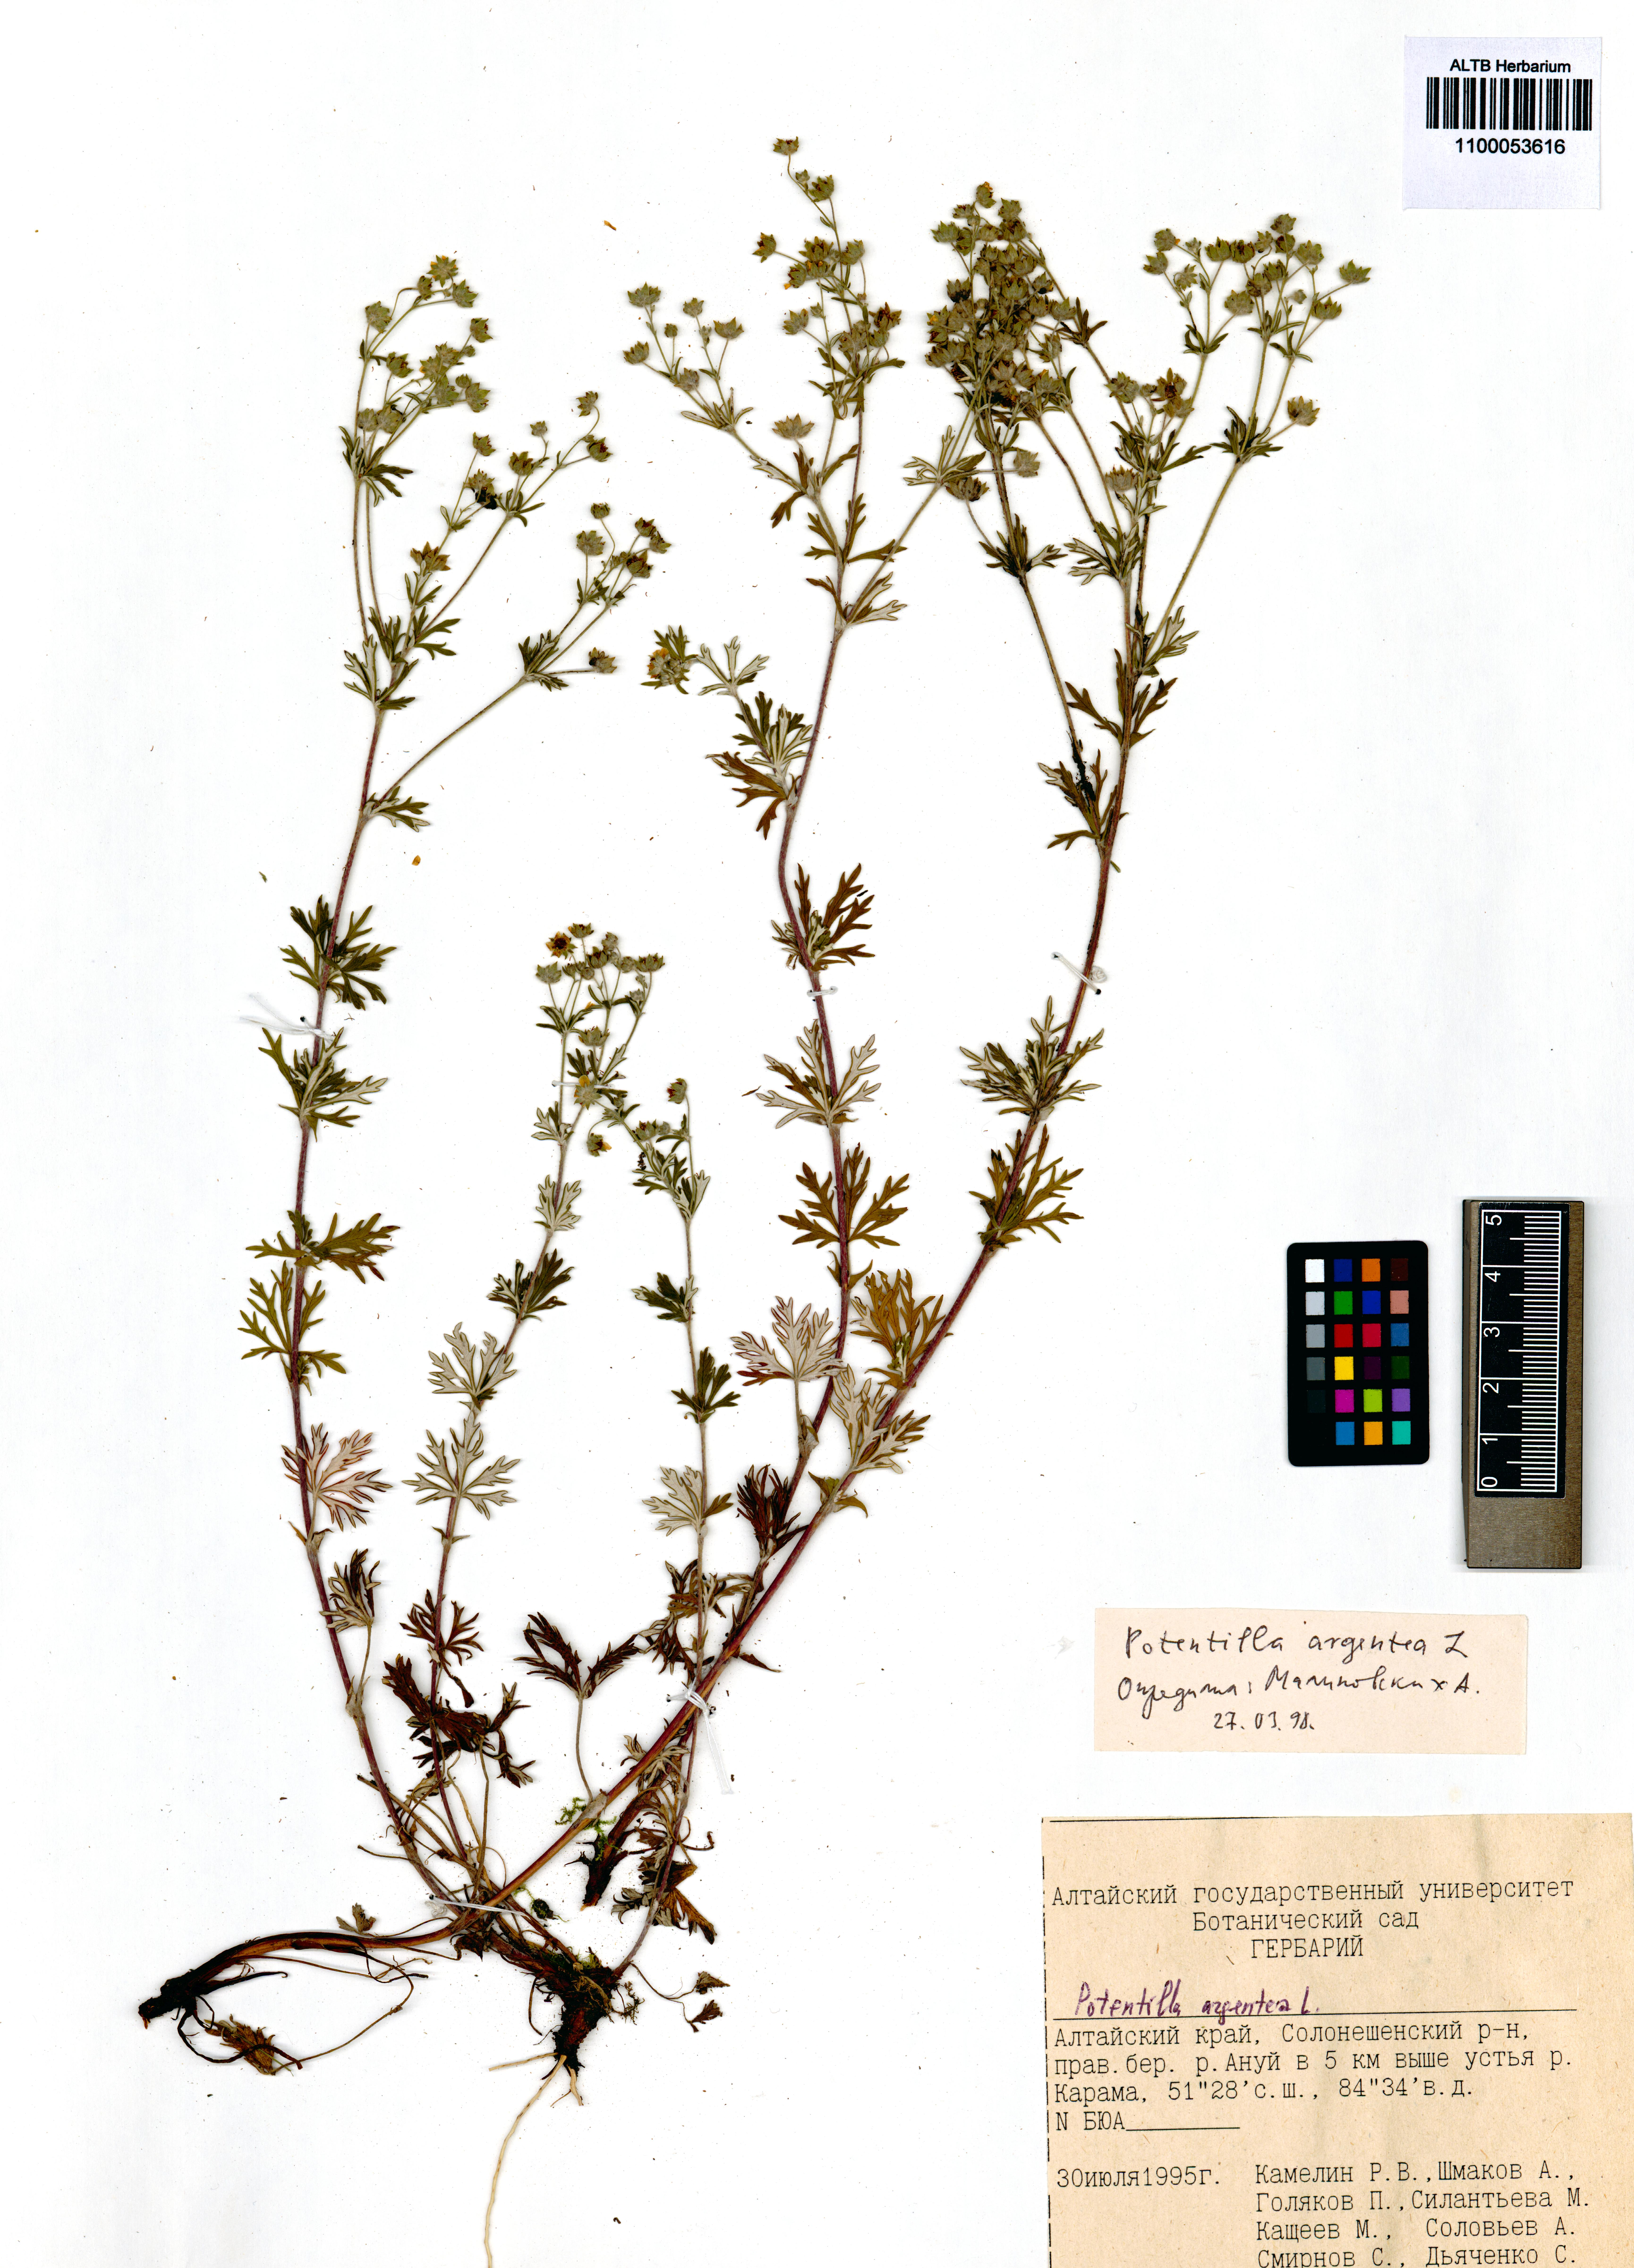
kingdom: Plantae
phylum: Tracheophyta
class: Magnoliopsida
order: Rosales
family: Rosaceae
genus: Potentilla
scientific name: Potentilla argentea
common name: Hoary cinquefoil
